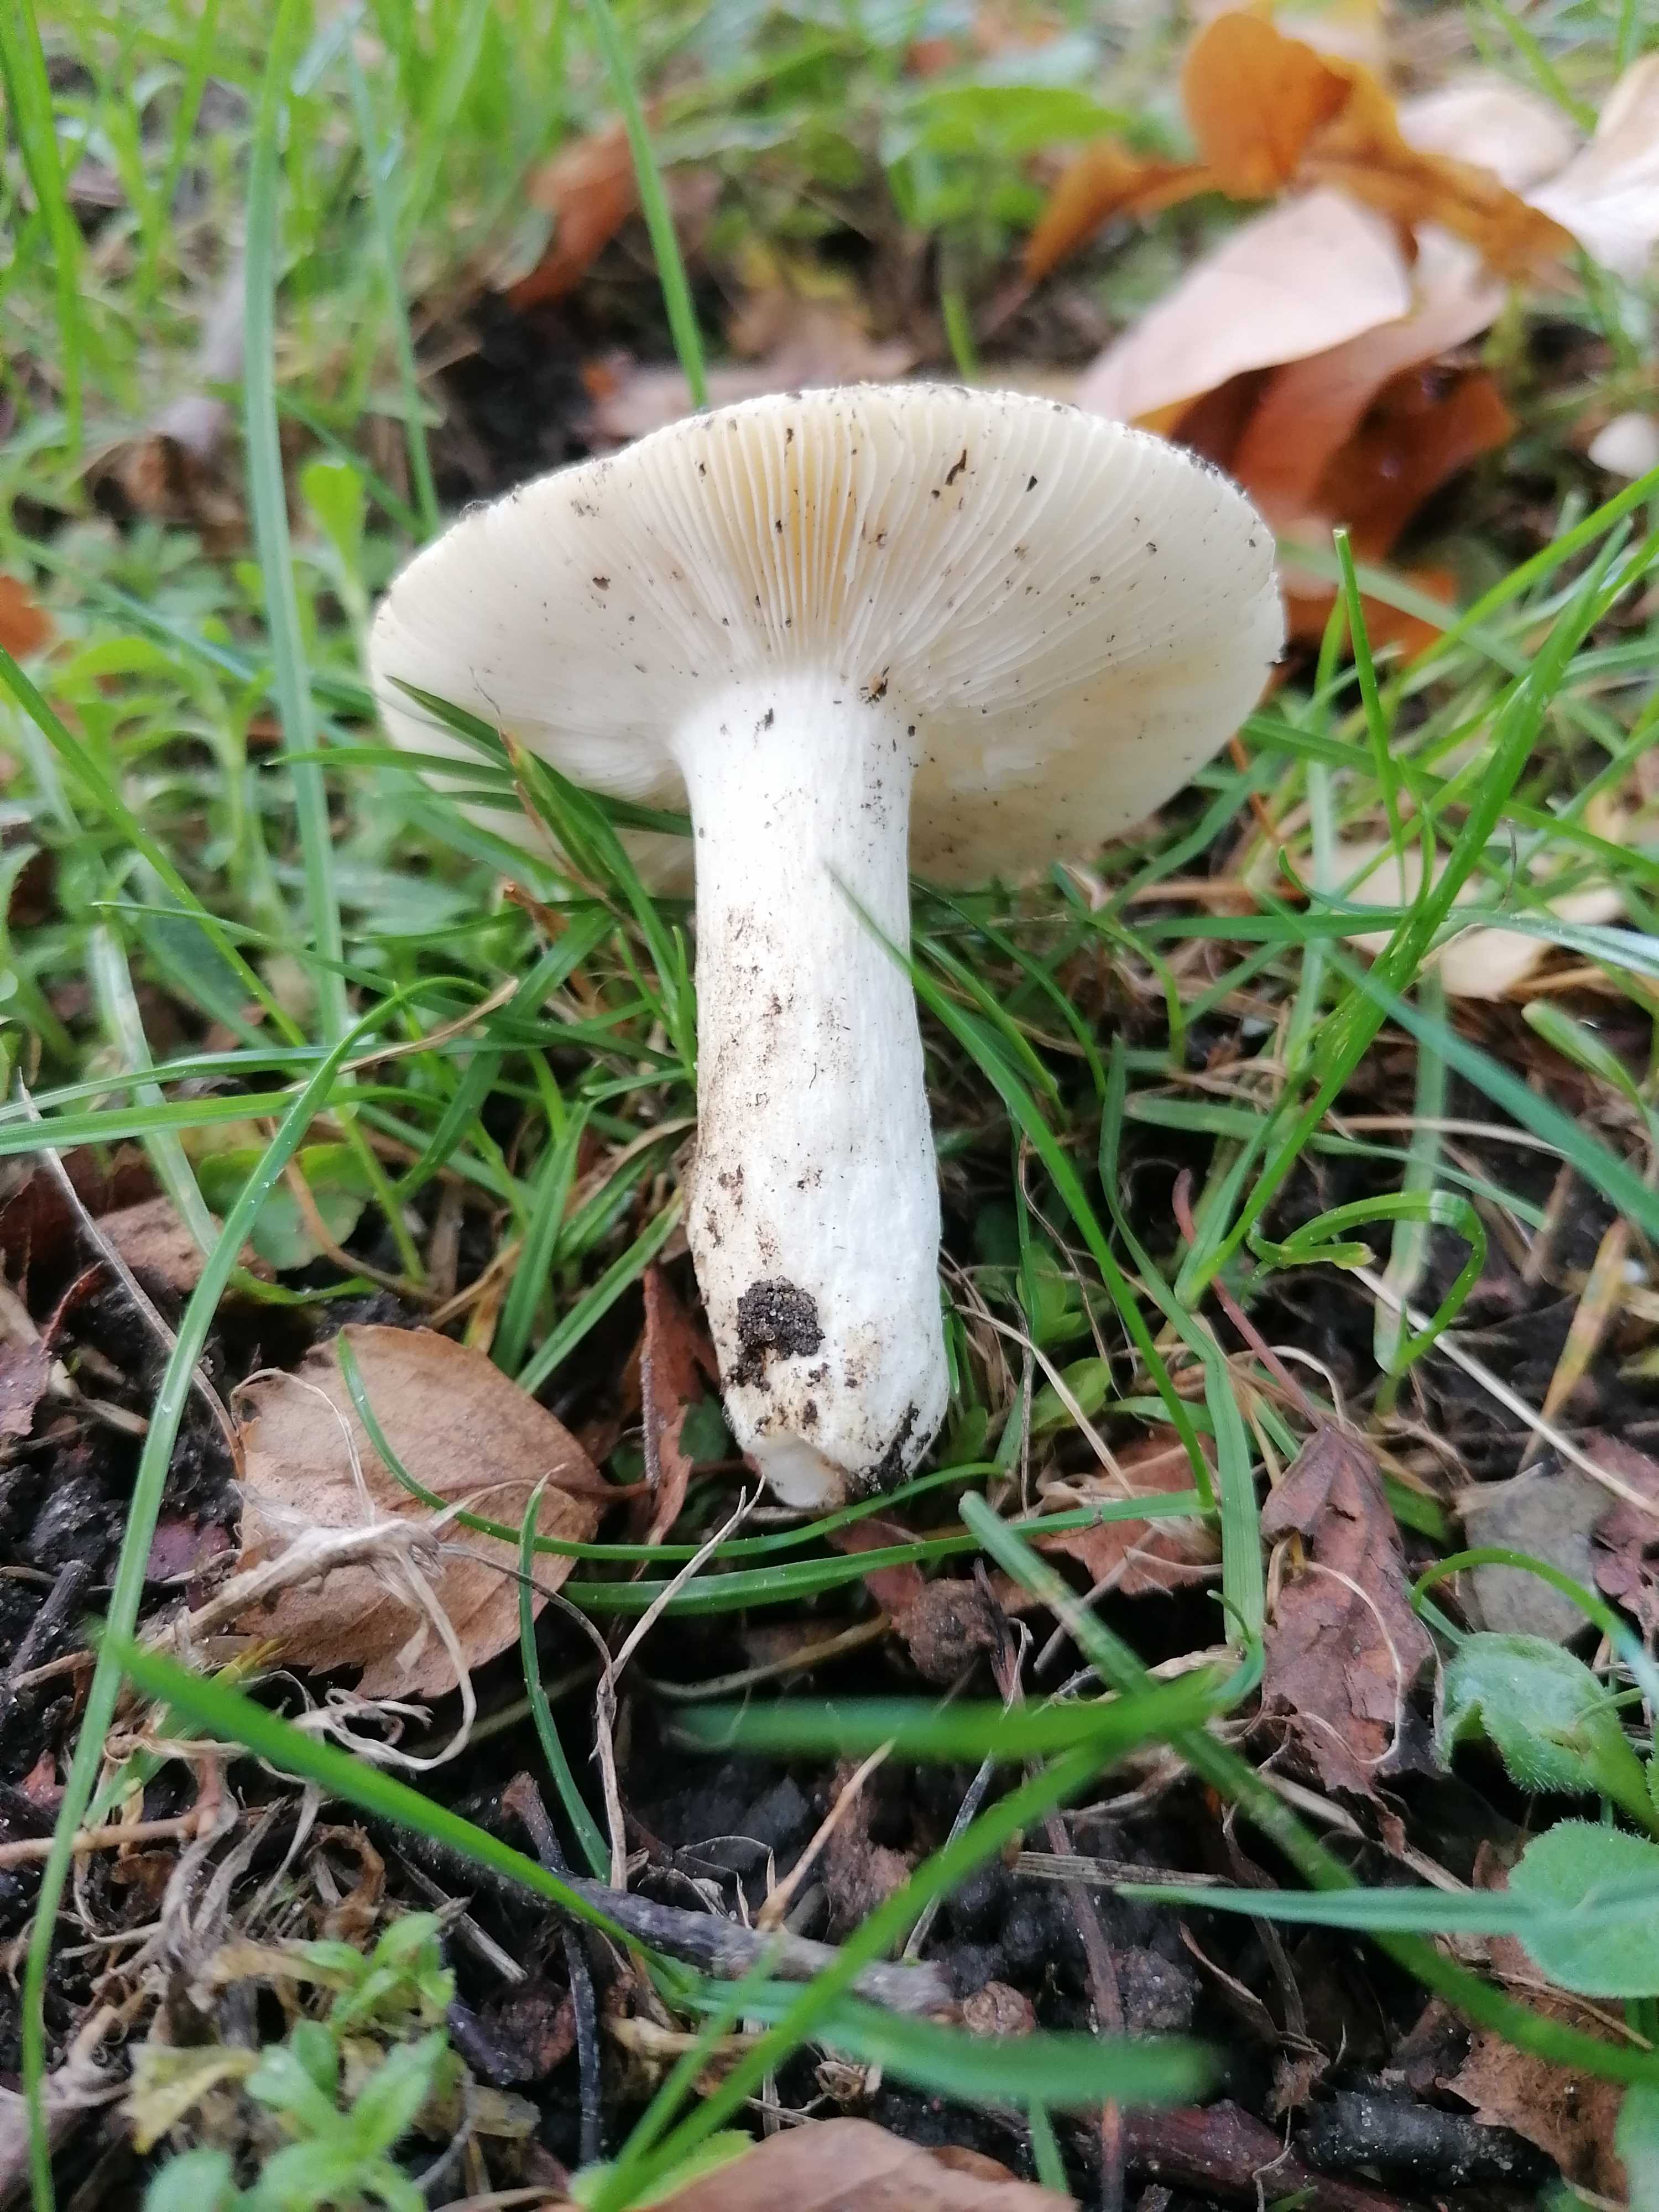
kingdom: Fungi
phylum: Basidiomycota
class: Agaricomycetes
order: Russulales
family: Russulaceae
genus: Russula
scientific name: Russula
